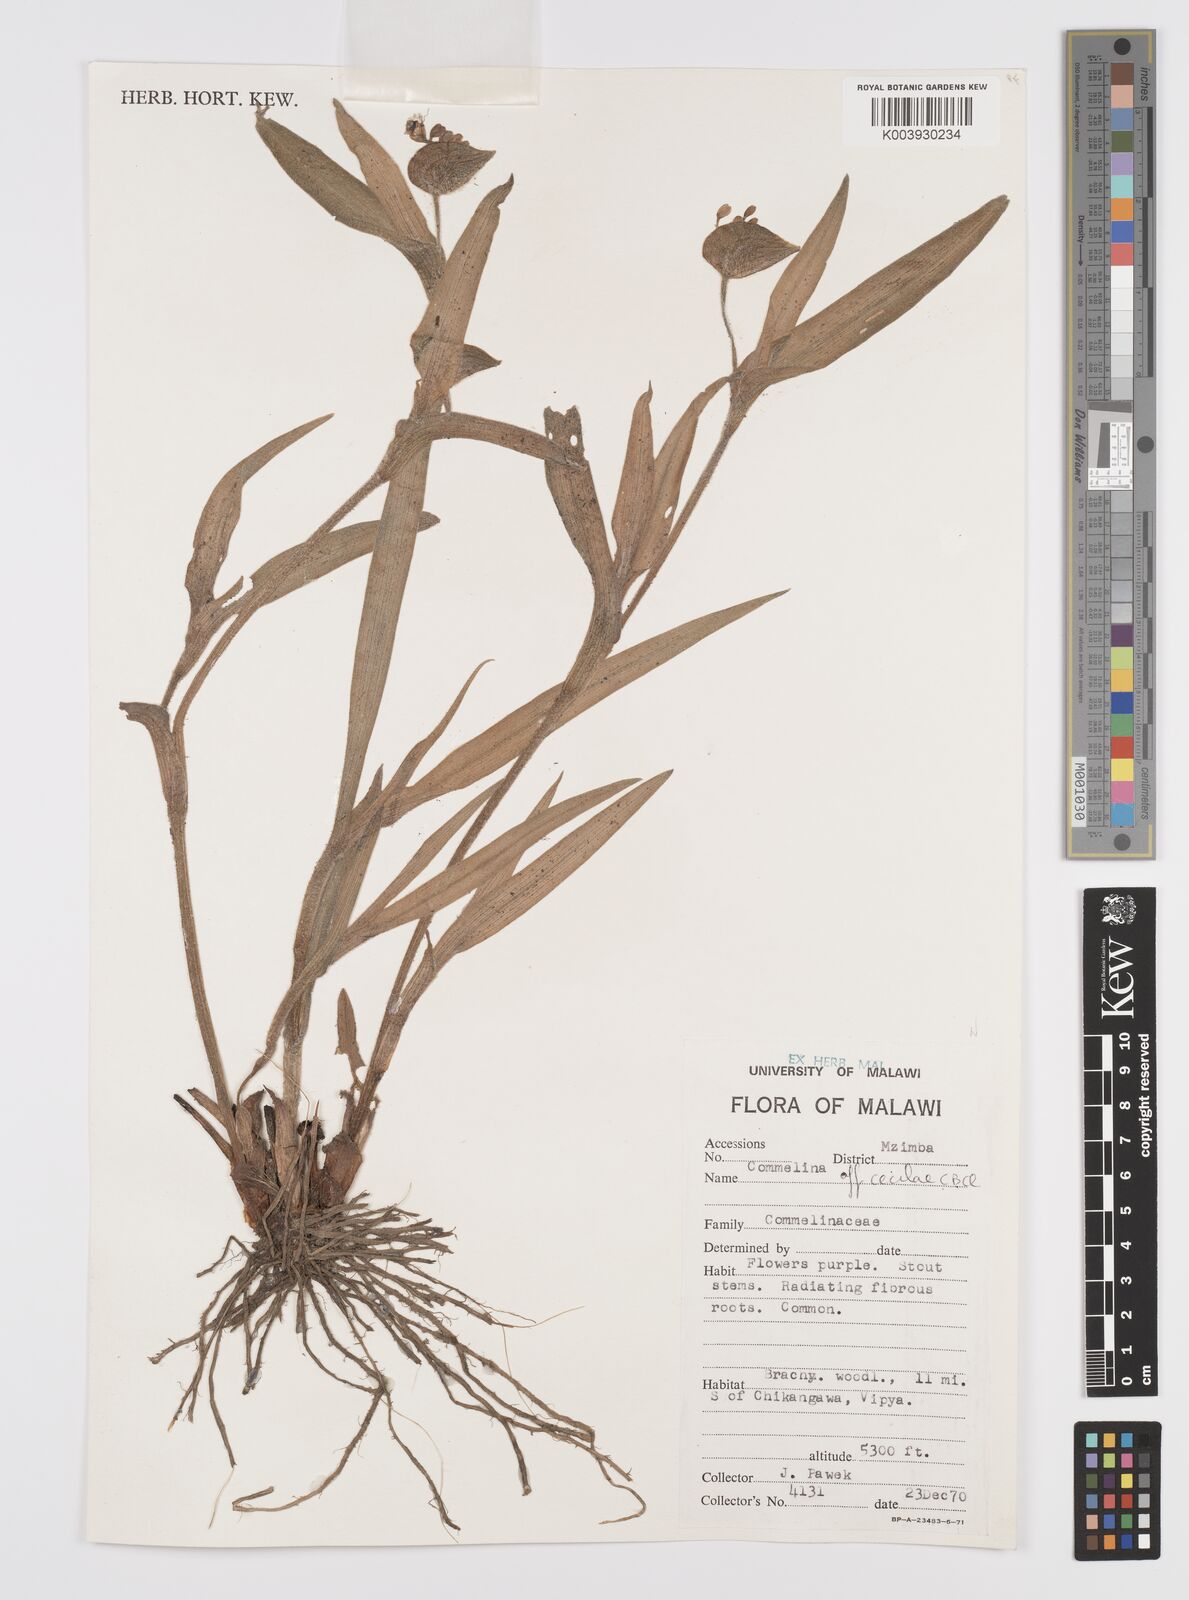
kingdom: Plantae
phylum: Tracheophyta
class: Liliopsida
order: Commelinales
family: Commelinaceae
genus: Commelina
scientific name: Commelina schweinfurthii
